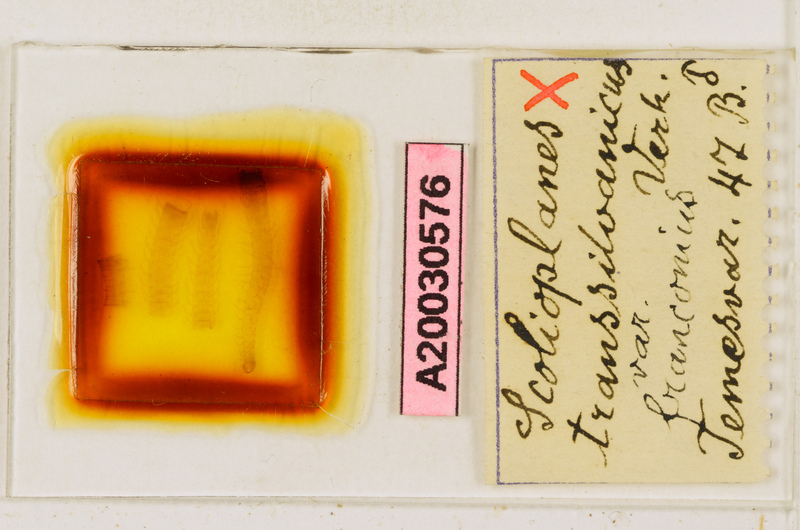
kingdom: Animalia
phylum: Arthropoda
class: Chilopoda
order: Geophilomorpha
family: Linotaeniidae
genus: Strigamia
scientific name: Strigamia transsilvanica
